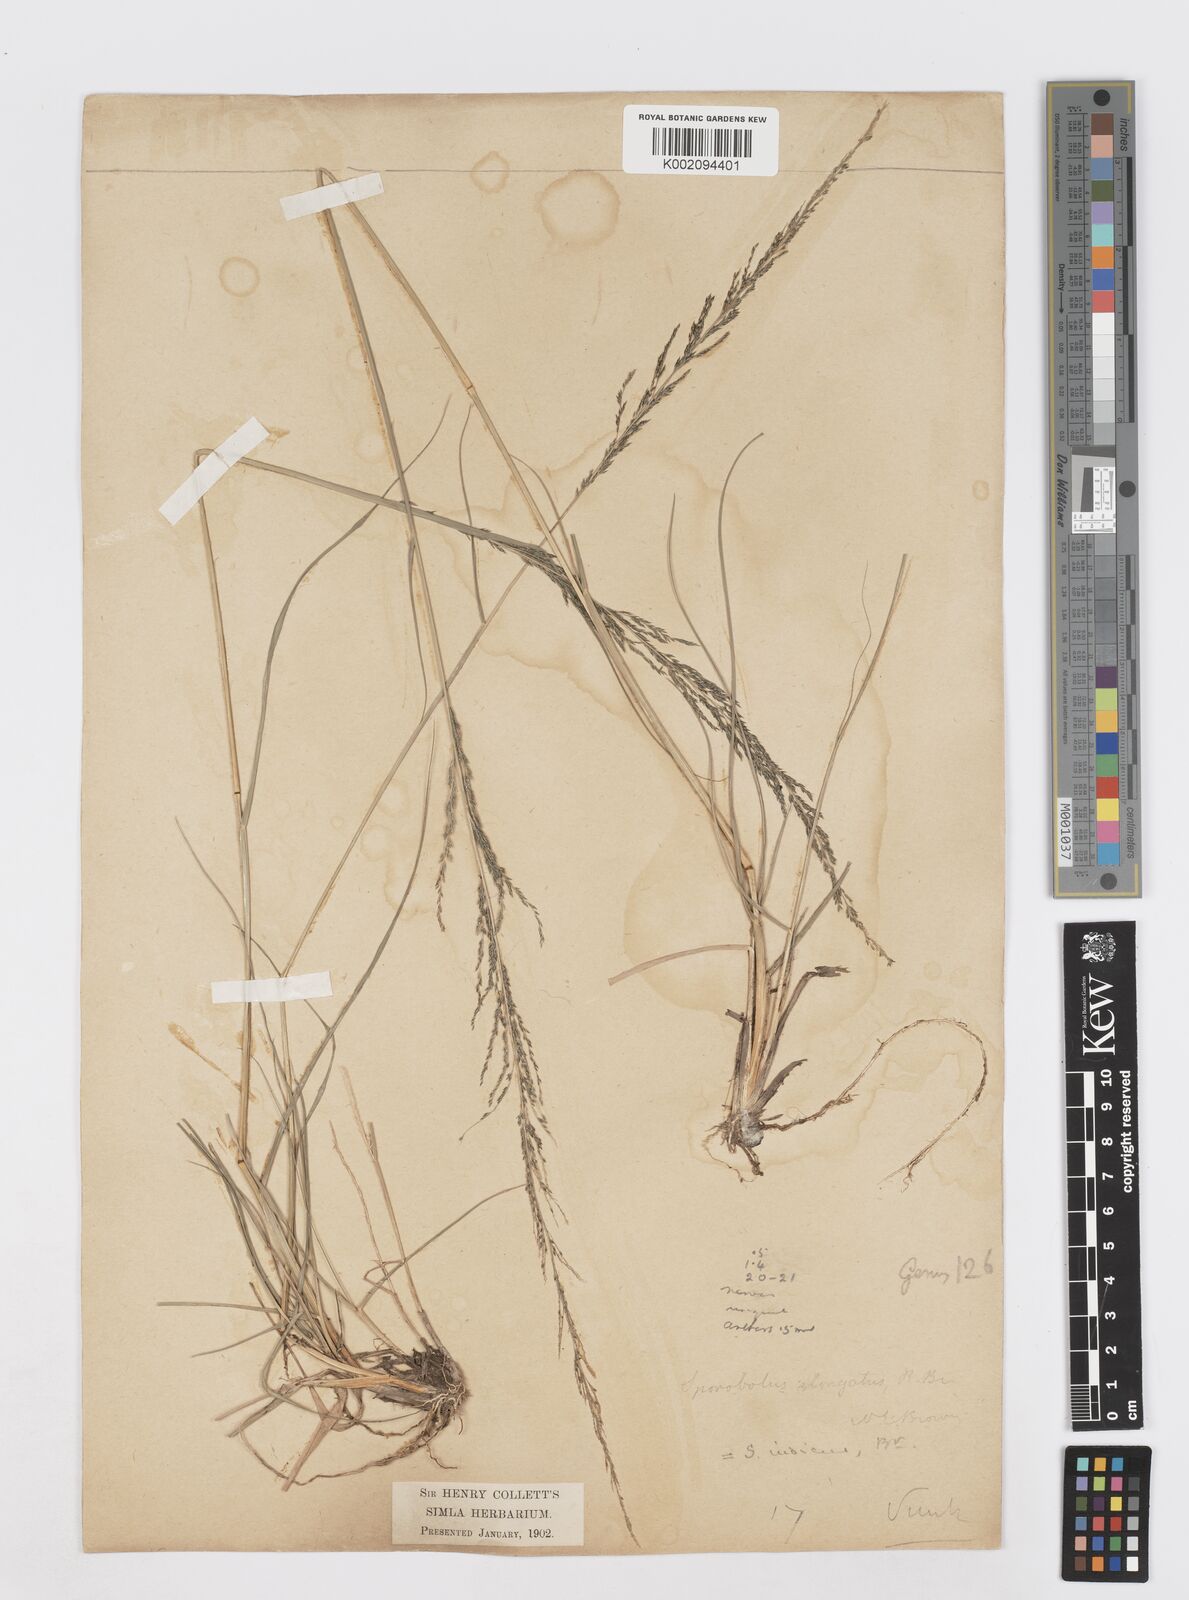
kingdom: Plantae
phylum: Tracheophyta
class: Liliopsida
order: Poales
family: Poaceae
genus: Sporobolus
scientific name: Sporobolus fertilis
